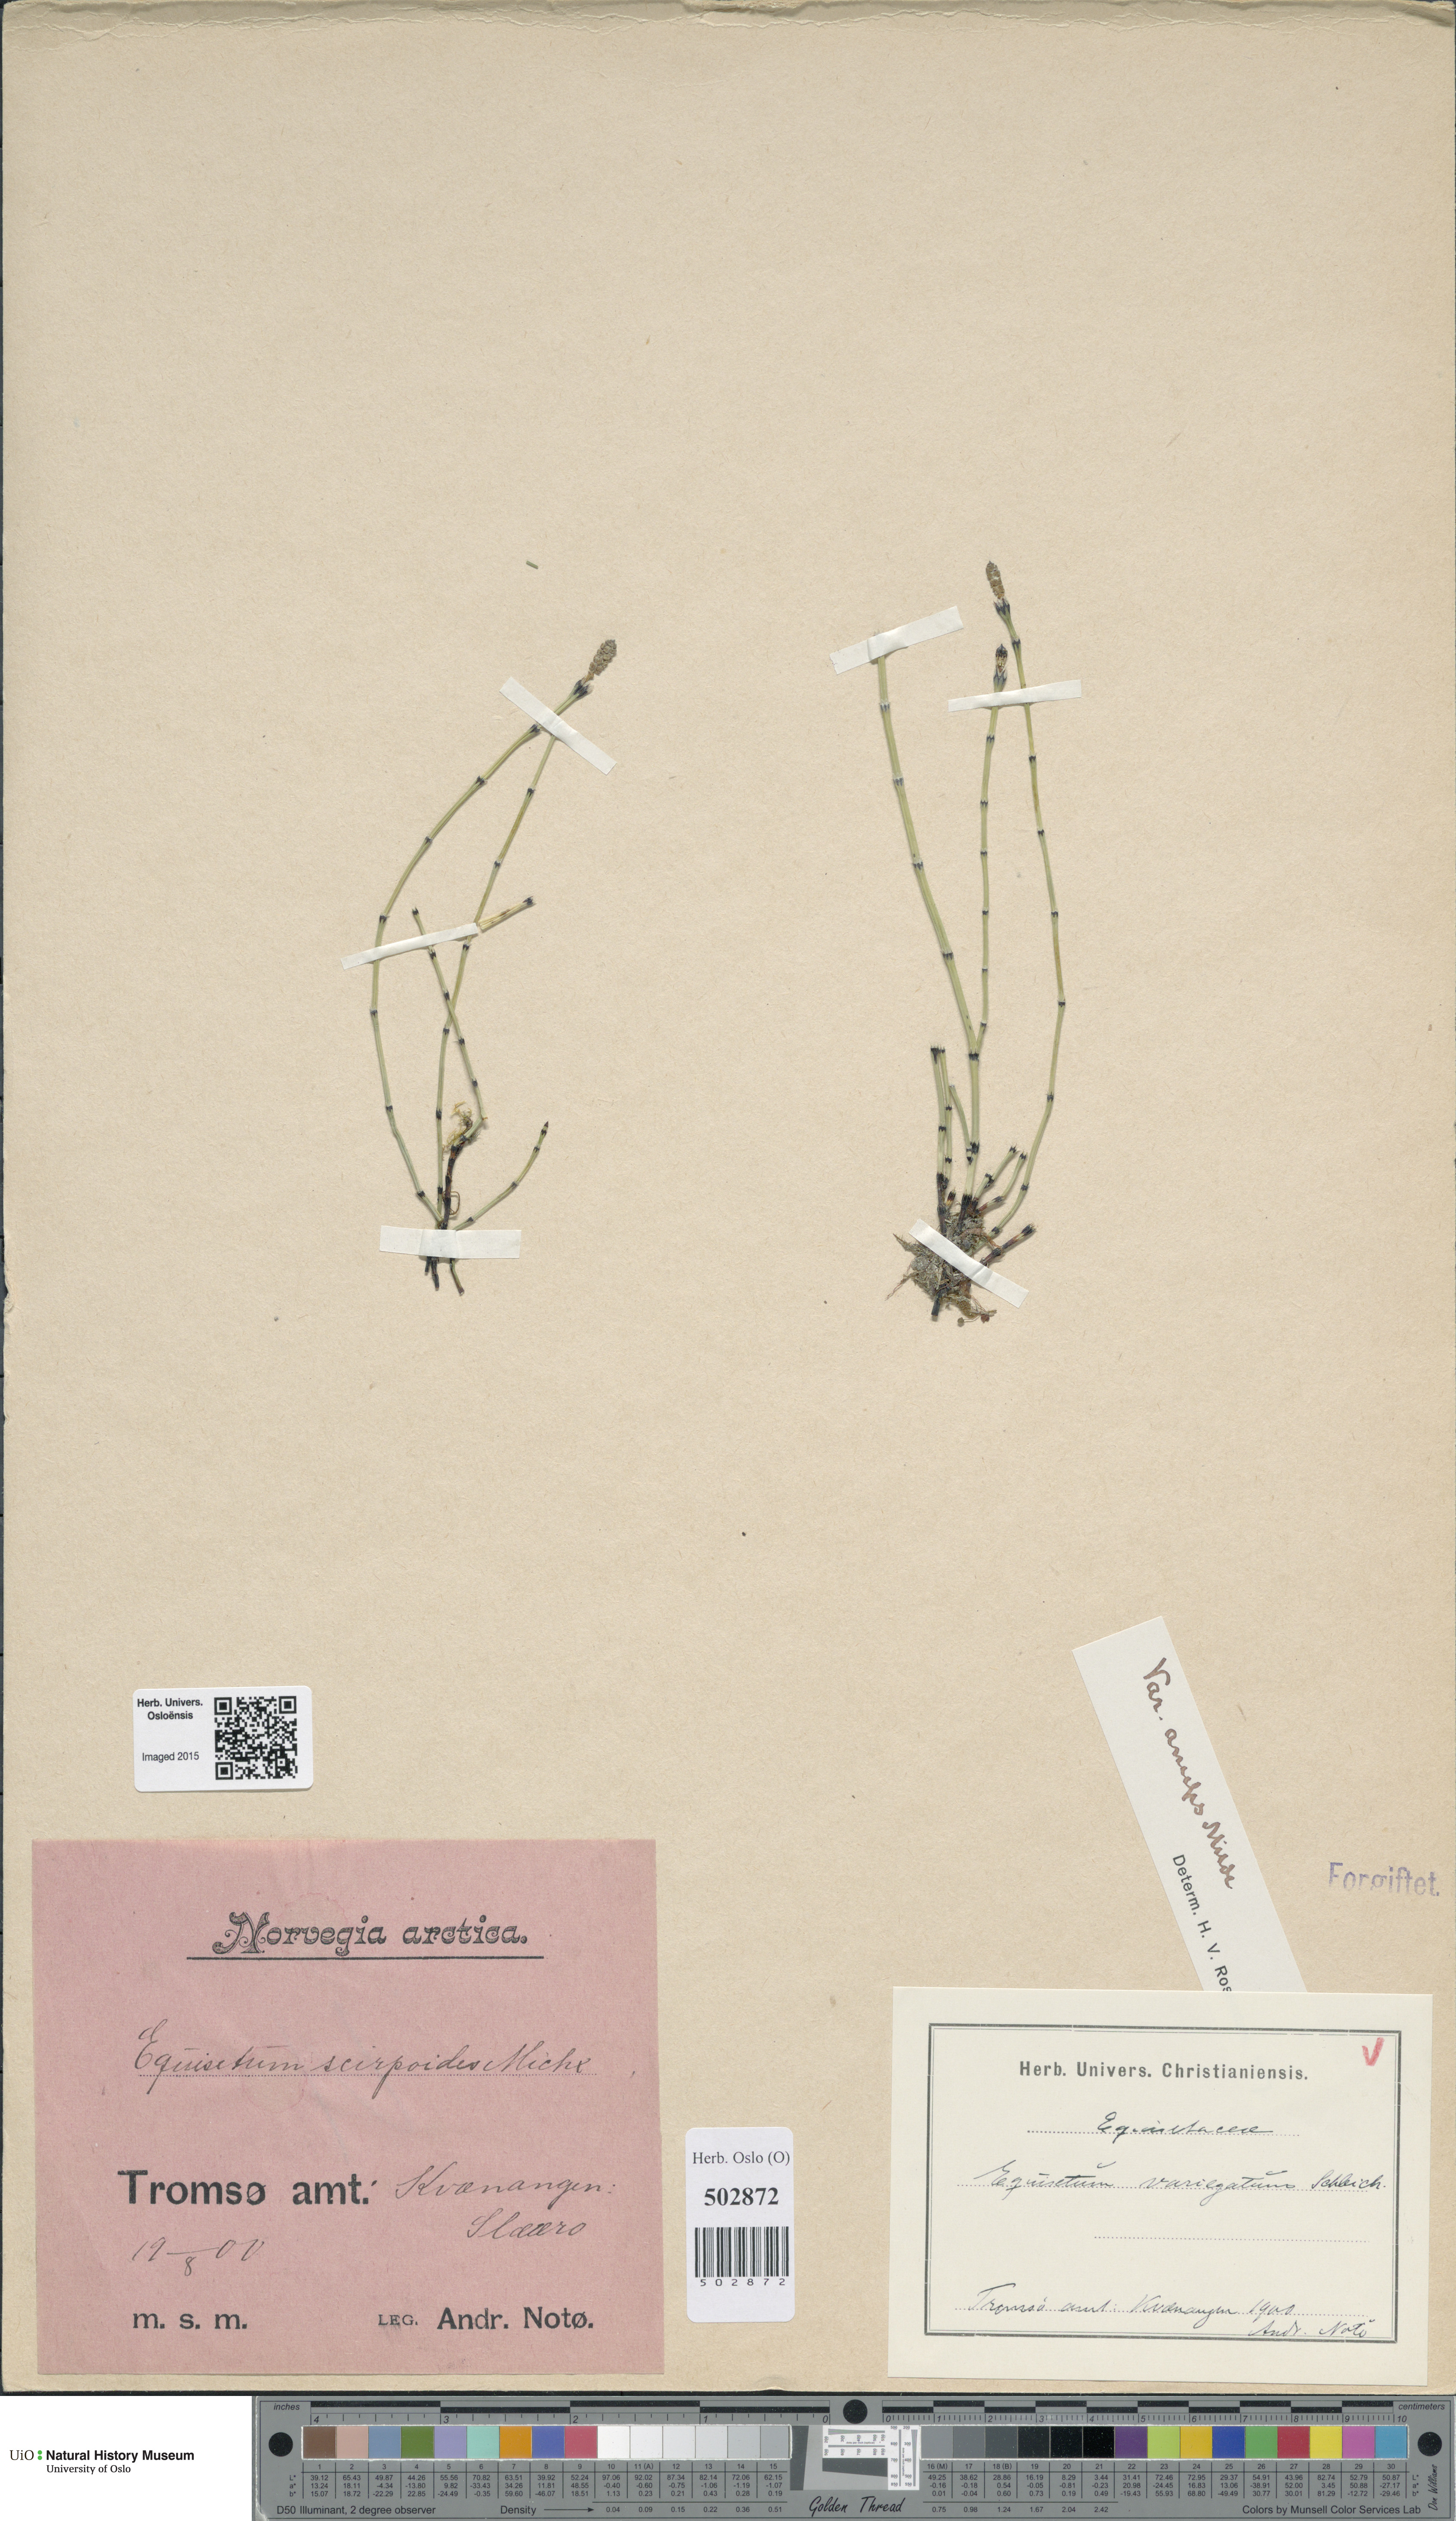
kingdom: Plantae
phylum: Tracheophyta
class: Polypodiopsida
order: Equisetales
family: Equisetaceae
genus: Equisetum
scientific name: Equisetum variegatum
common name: Variegated horsetail
